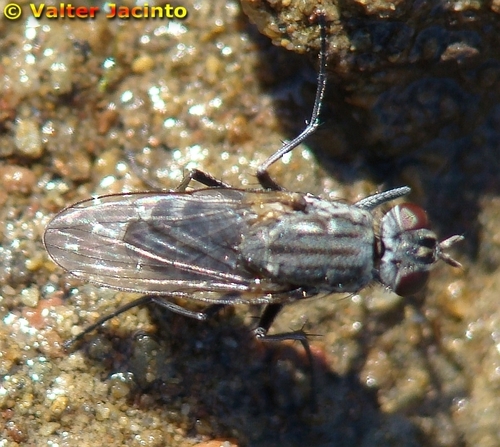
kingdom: Animalia
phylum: Arthropoda
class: Insecta
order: Diptera
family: Muscidae
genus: Lispe
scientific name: Lispe assimilis
